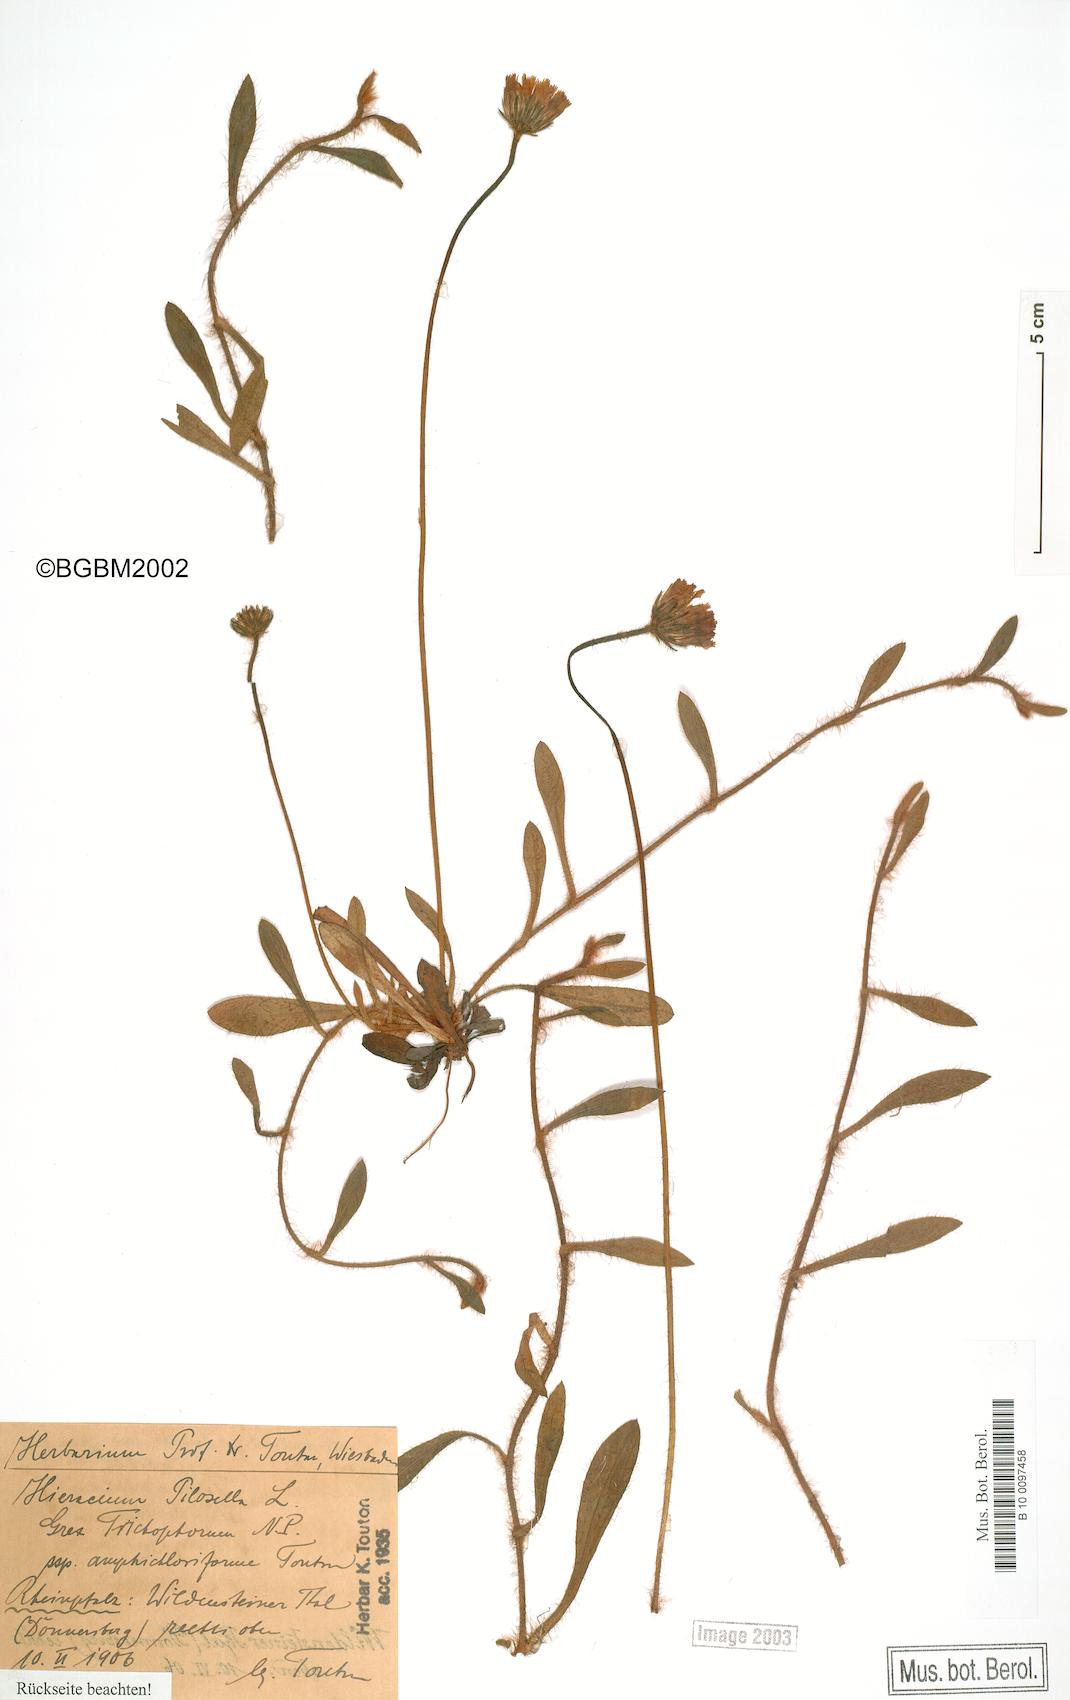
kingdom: Plantae
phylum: Tracheophyta
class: Magnoliopsida
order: Asterales
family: Asteraceae
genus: Pilosella
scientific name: Pilosella officinarum
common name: Mouse-ear hawkweed
